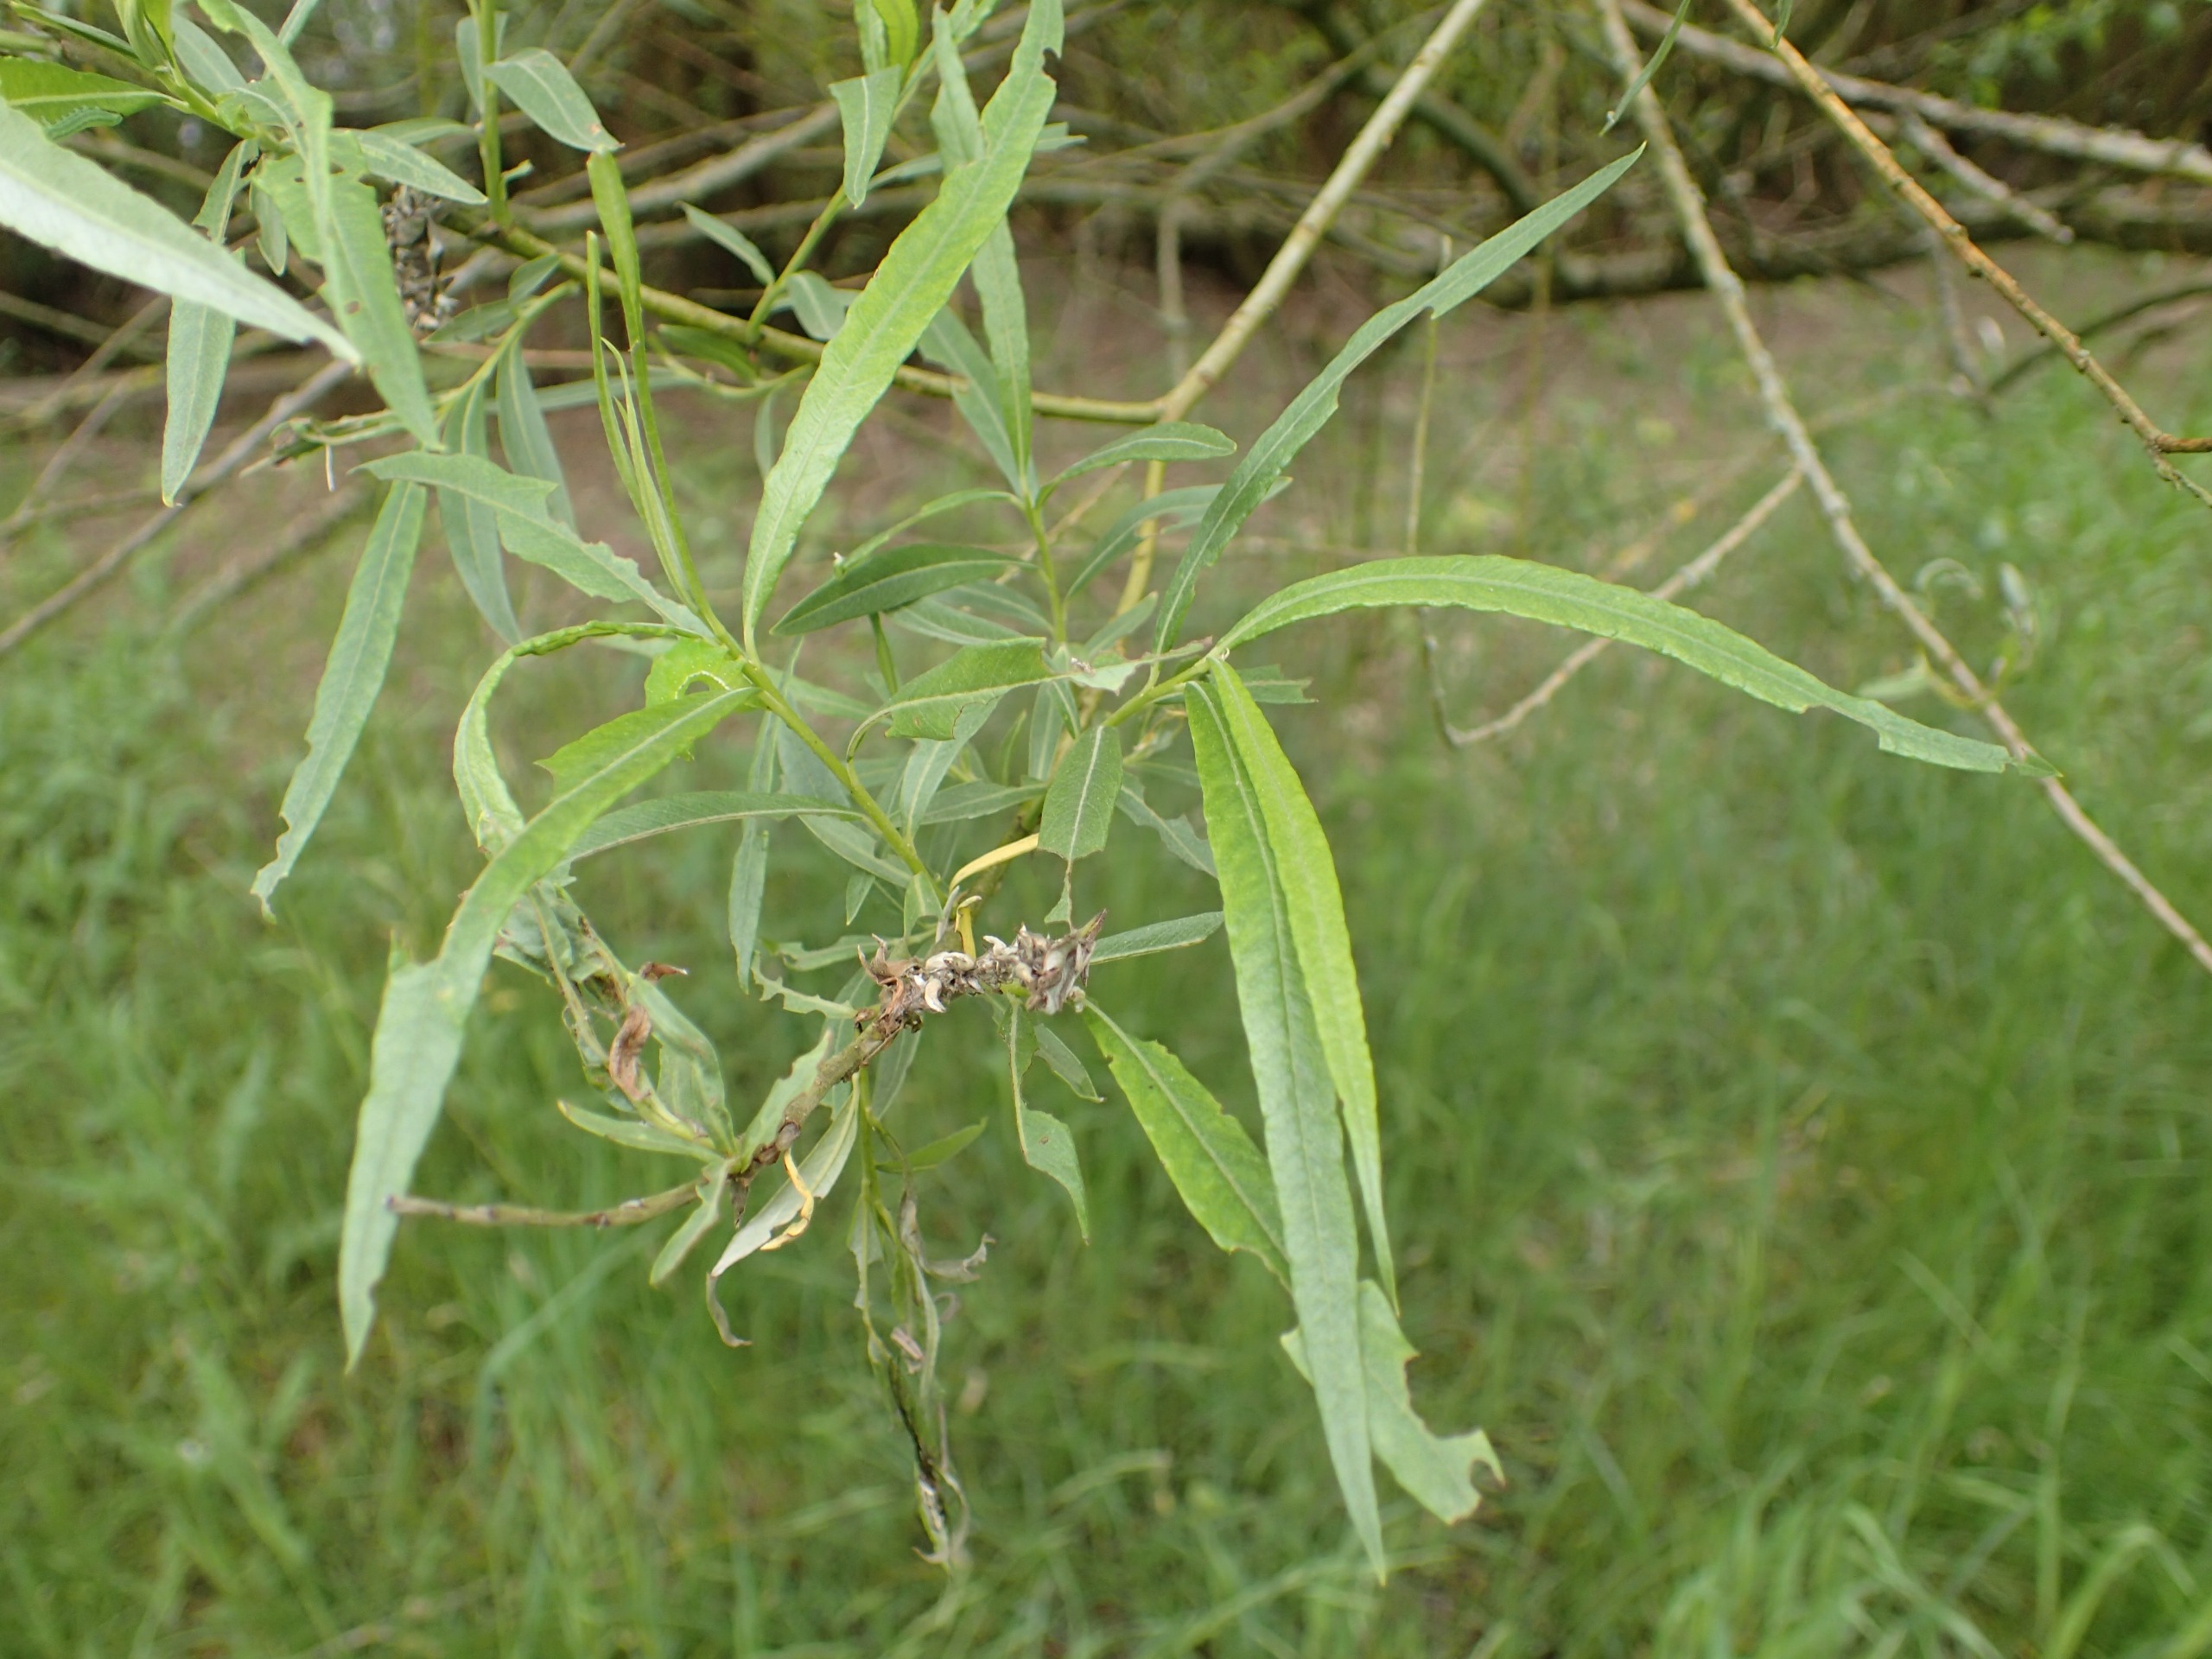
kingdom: Plantae
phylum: Tracheophyta
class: Magnoliopsida
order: Malpighiales
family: Salicaceae
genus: Salix
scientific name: Salix viminalis
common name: Bånd-pil
